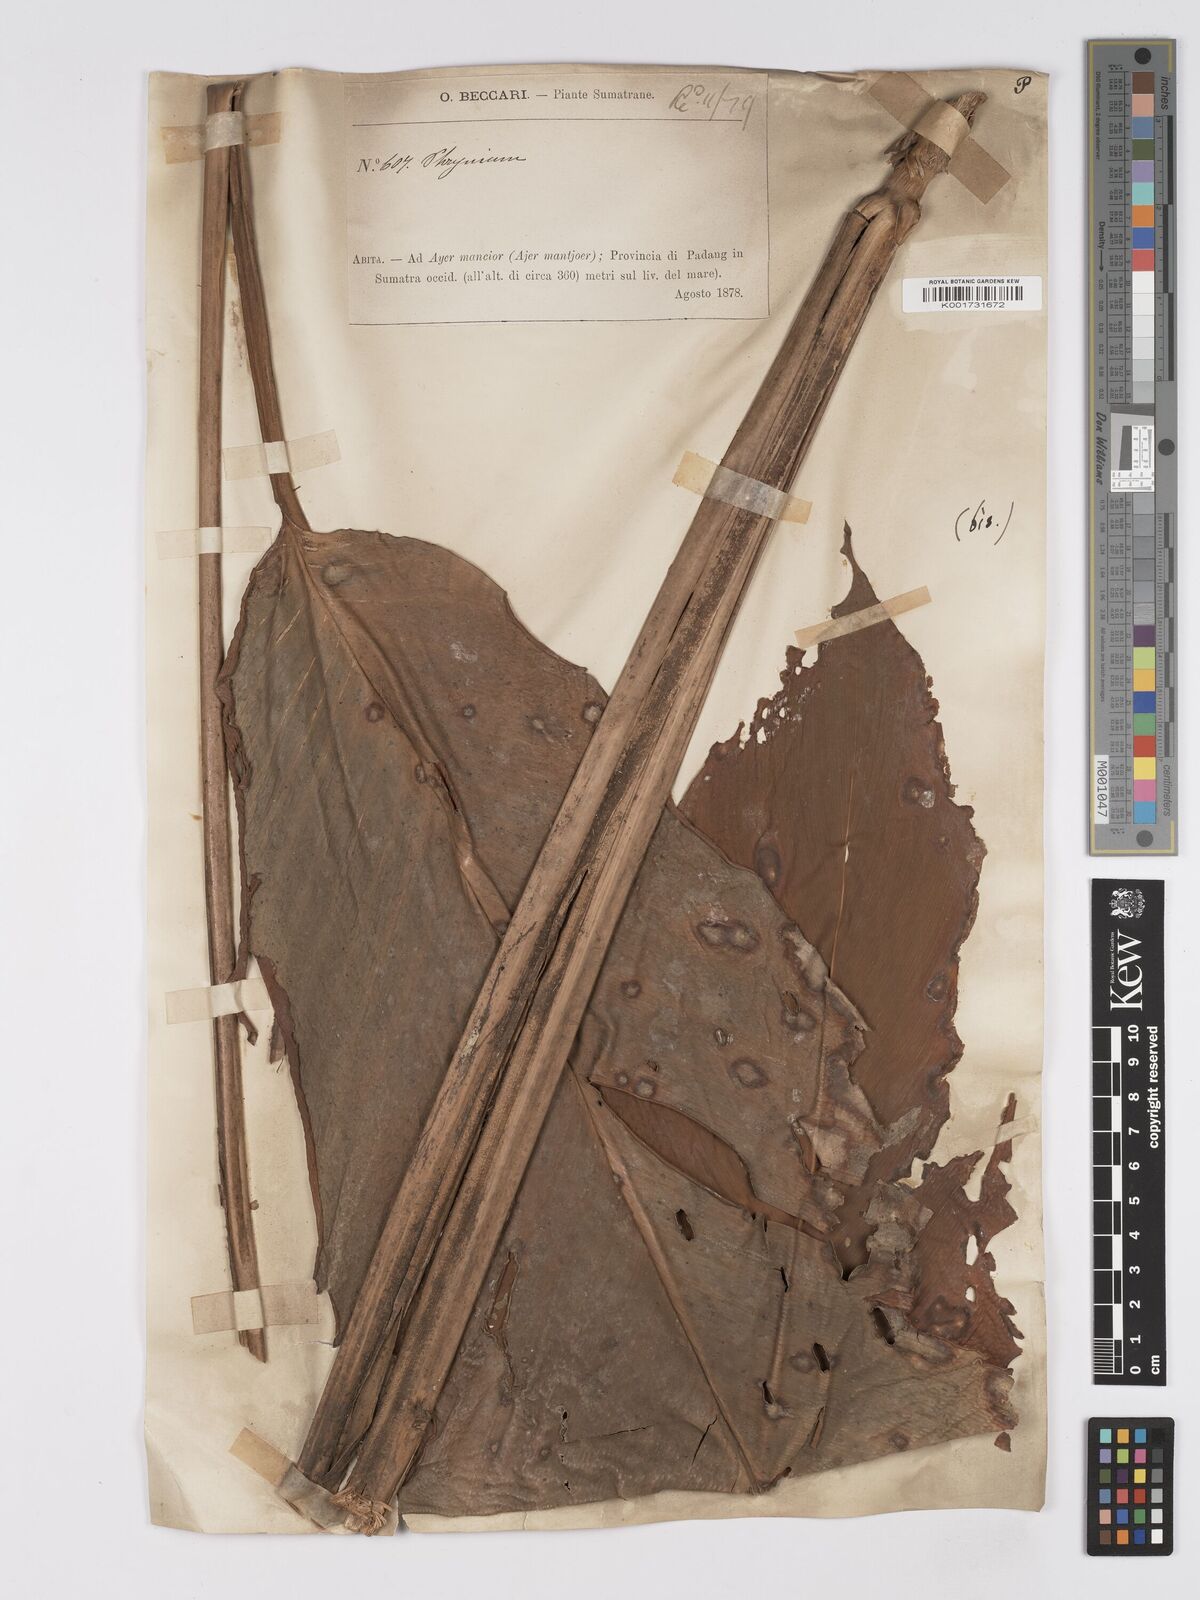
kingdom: Plantae
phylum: Tracheophyta
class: Liliopsida
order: Zingiberales
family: Marantaceae
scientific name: Marantaceae
